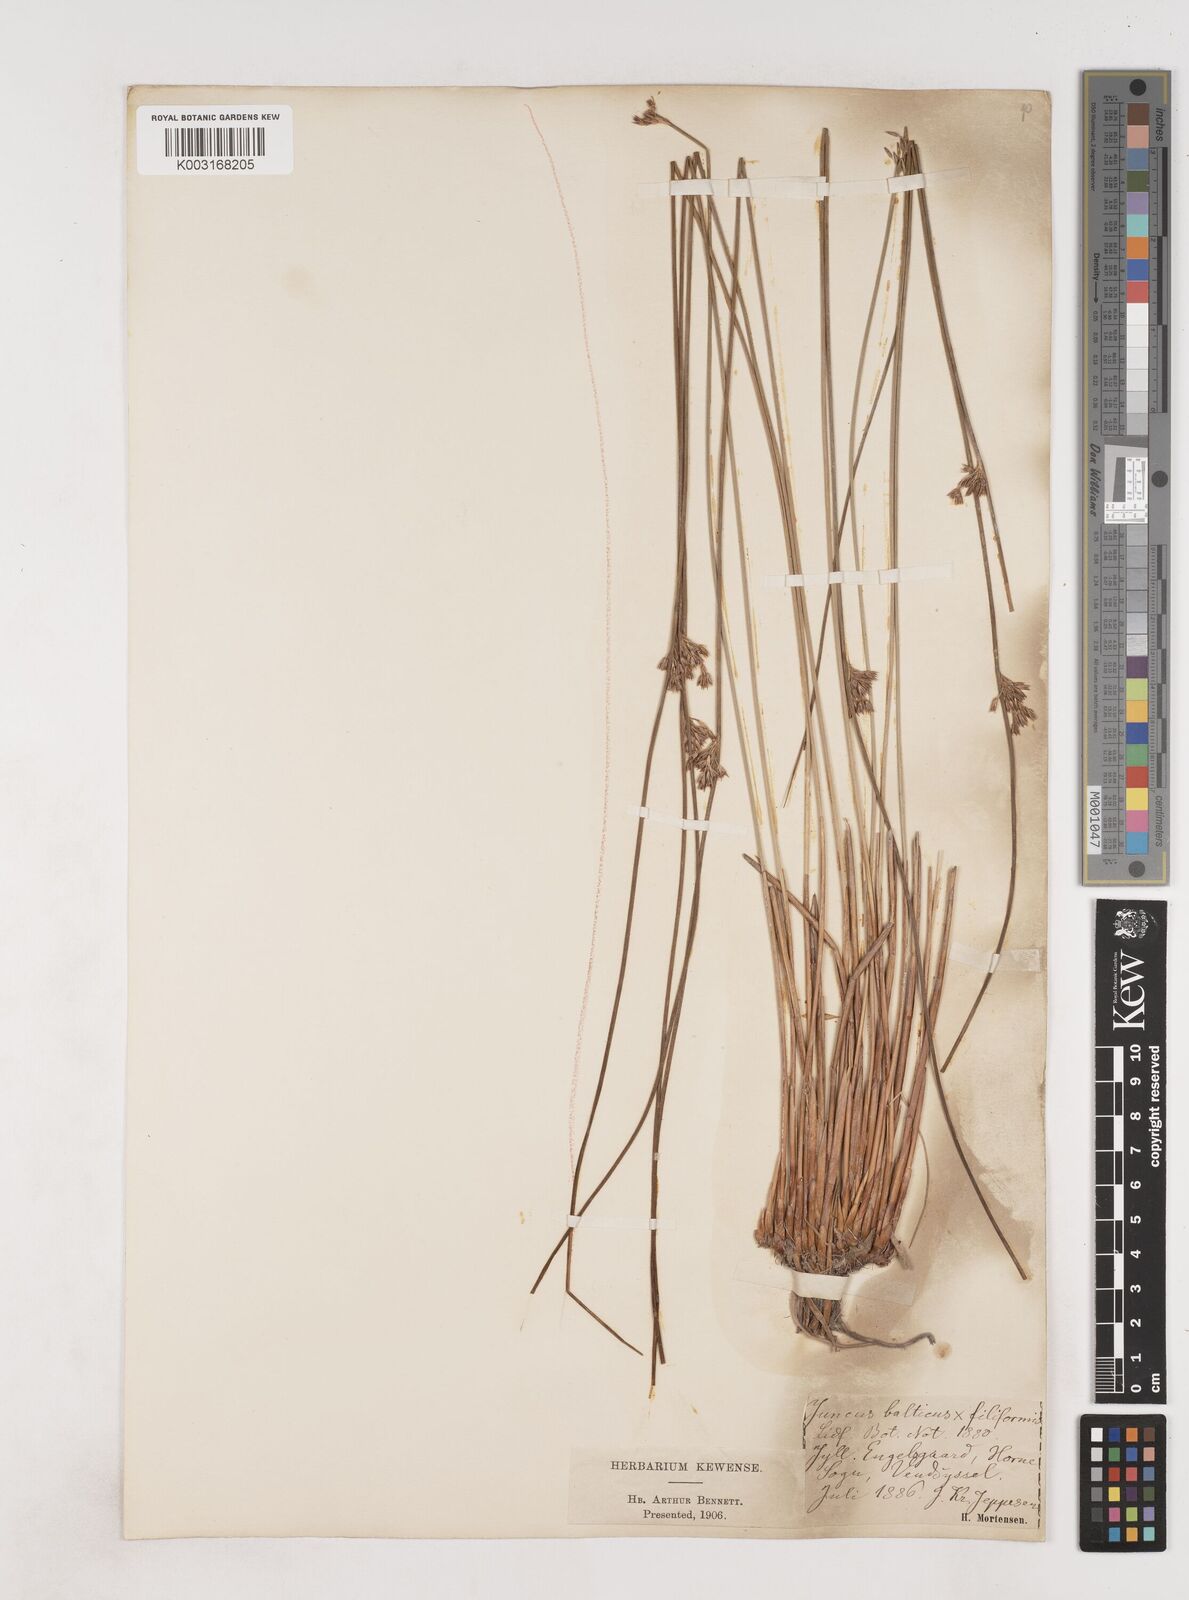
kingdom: Plantae
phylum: Tracheophyta
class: Liliopsida
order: Poales
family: Juncaceae
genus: Juncus
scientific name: Juncus balticus
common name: Baltic rush
